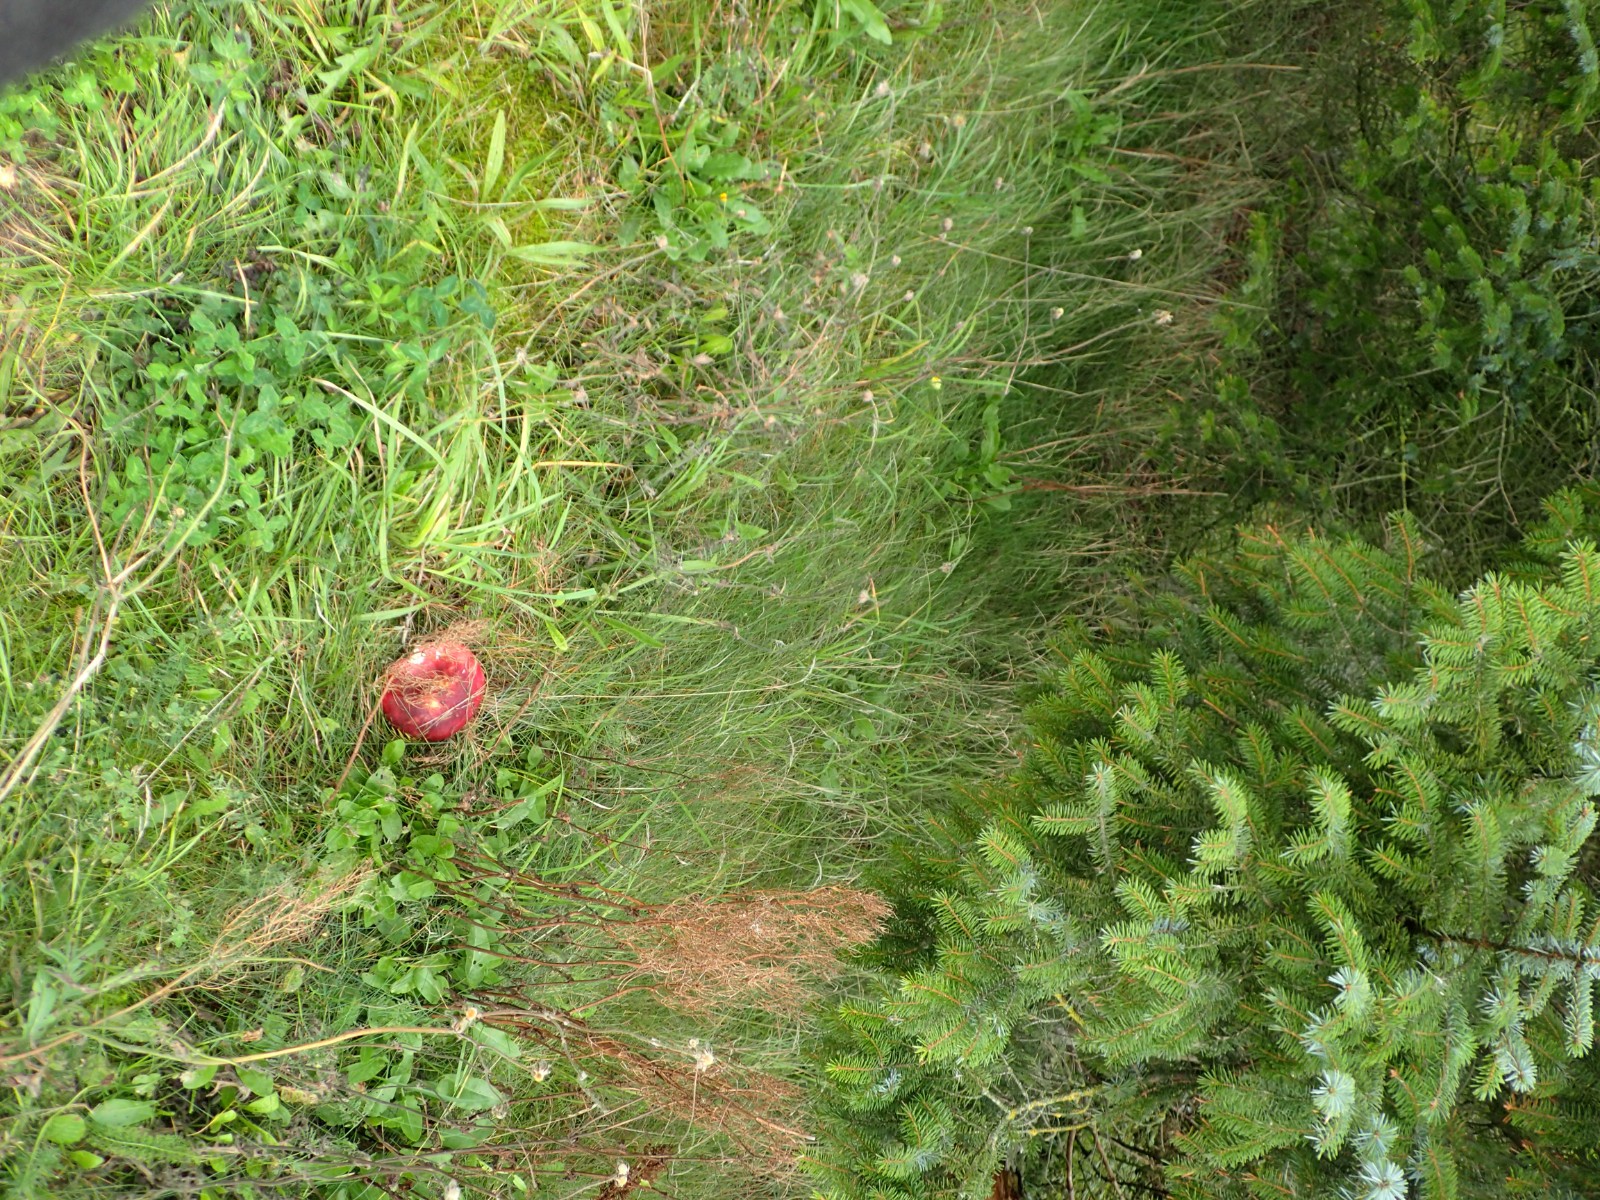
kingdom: Fungi
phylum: Basidiomycota
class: Agaricomycetes
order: Russulales
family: Russulaceae
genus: Russula
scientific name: Russula xerampelina
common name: hummer-skørhat
